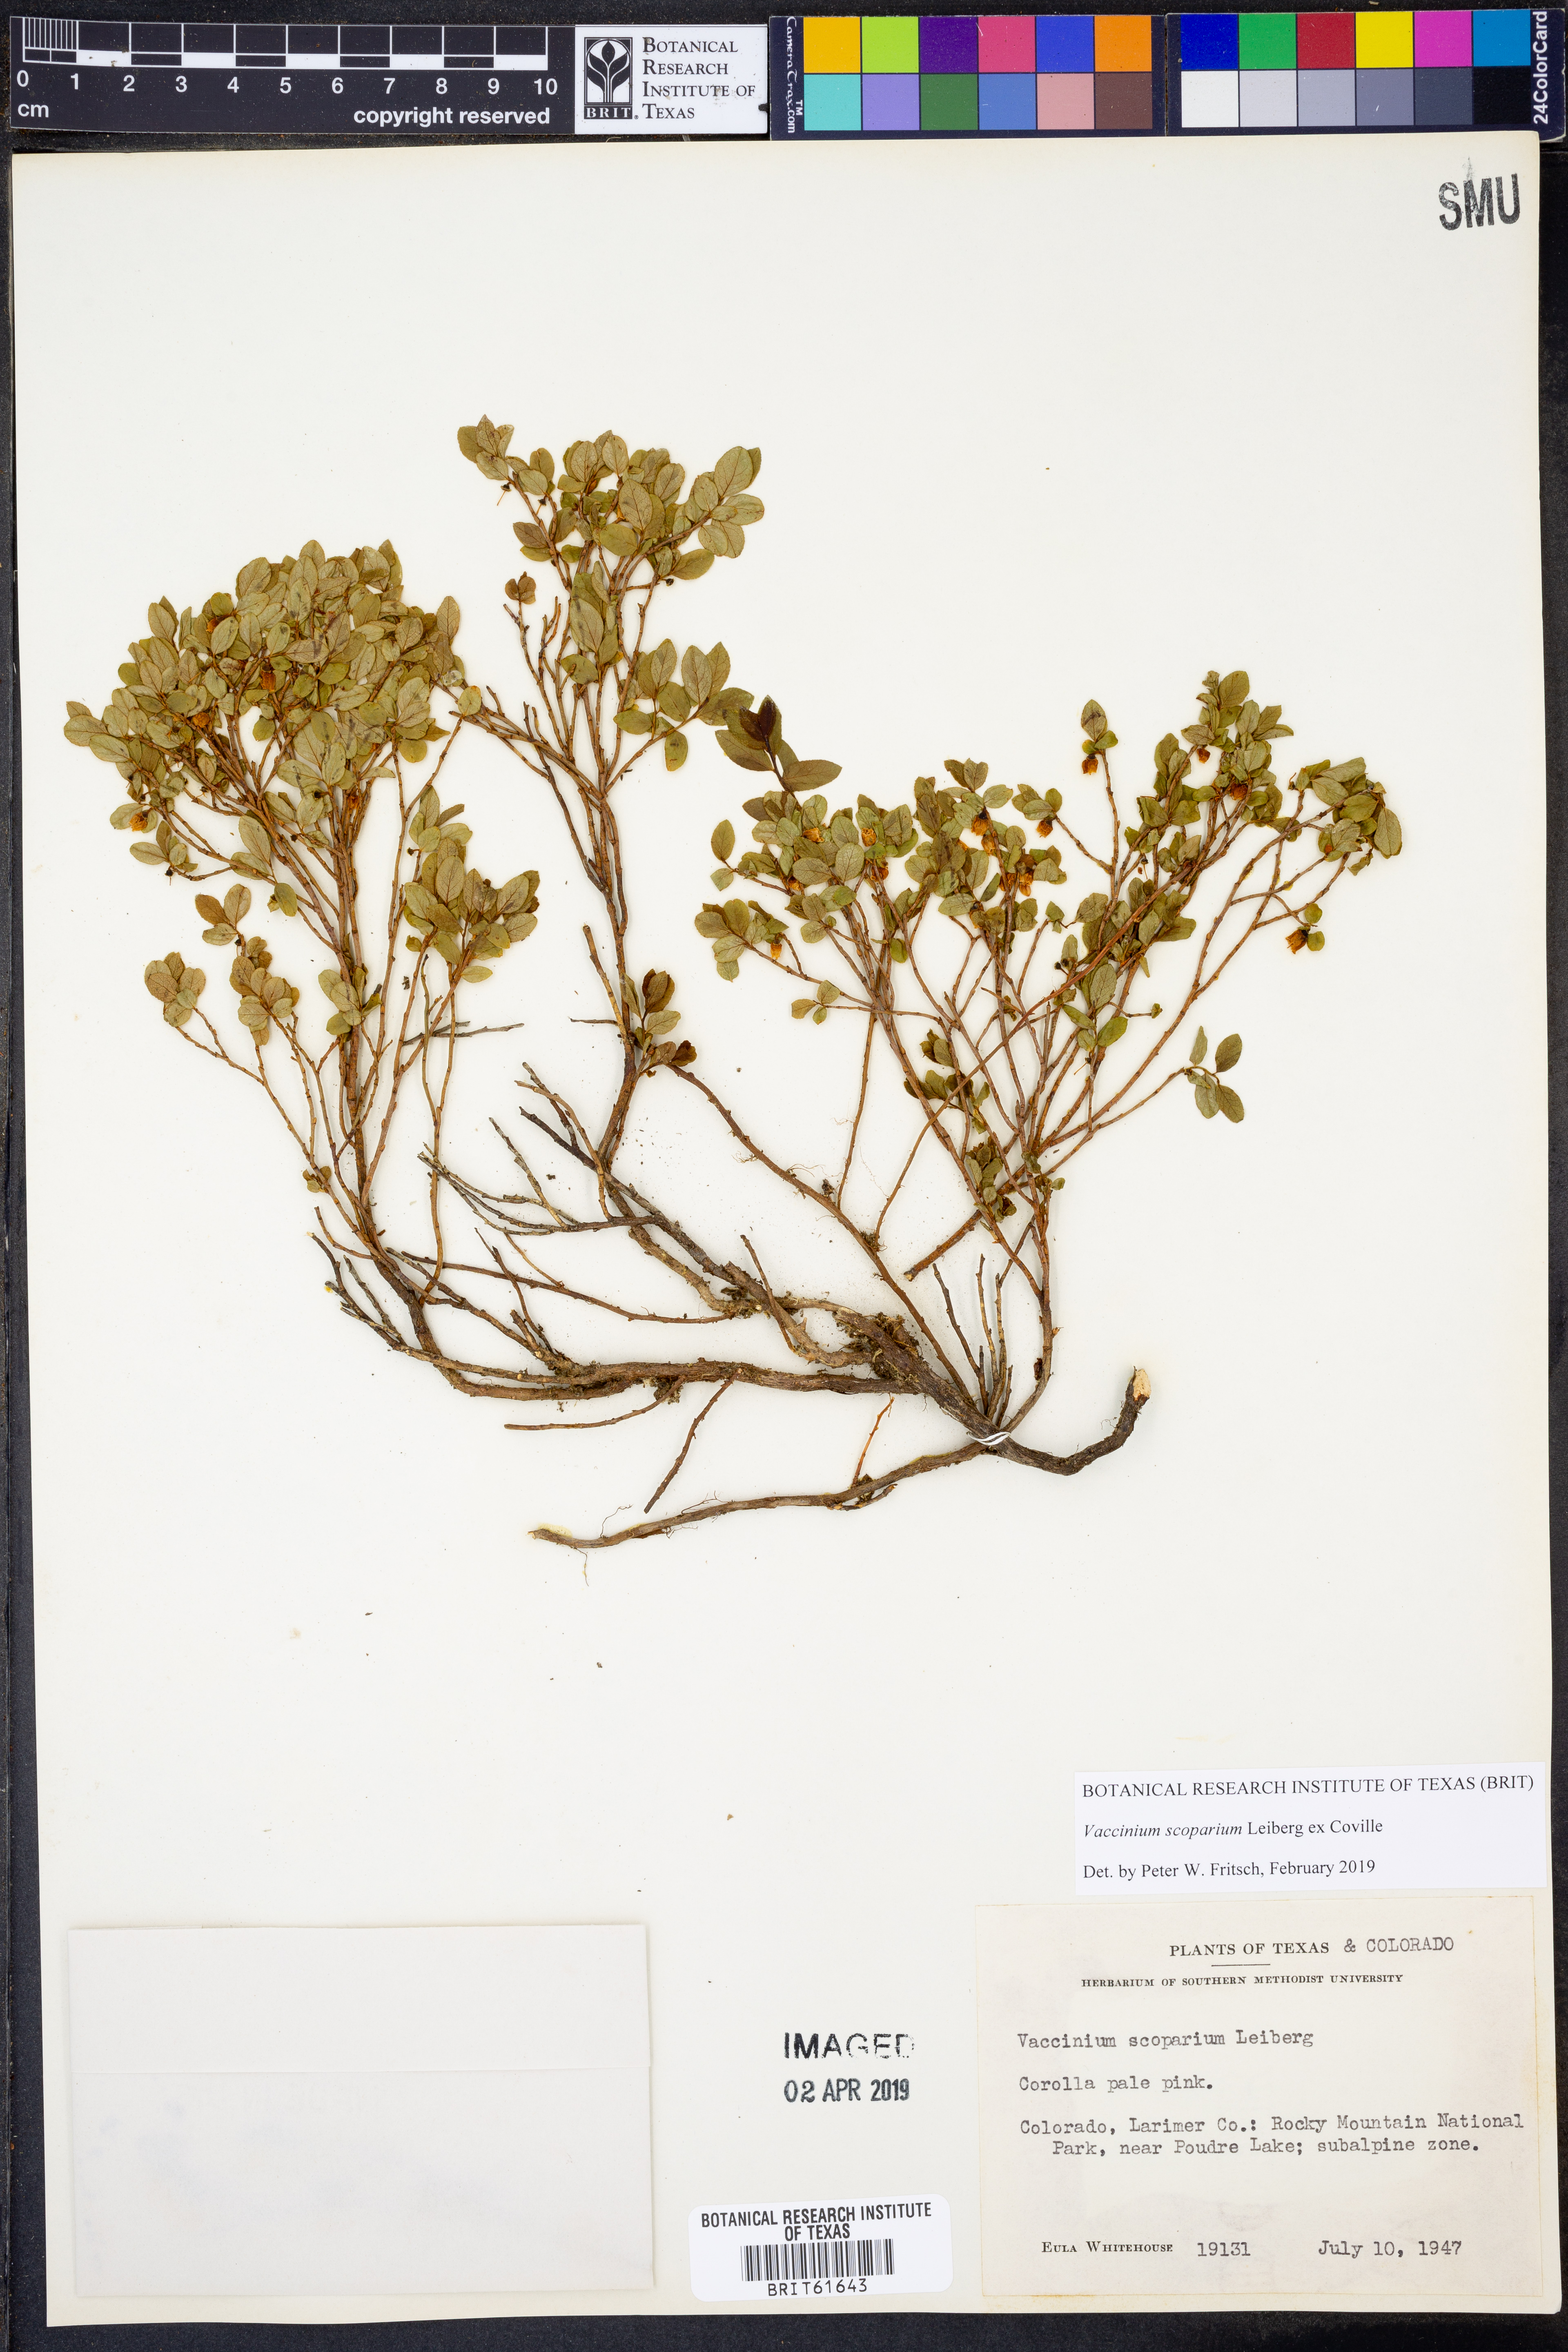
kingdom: Plantae
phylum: Tracheophyta
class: Magnoliopsida
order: Ericales
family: Ericaceae
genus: Vaccinium
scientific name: Vaccinium scoparium
